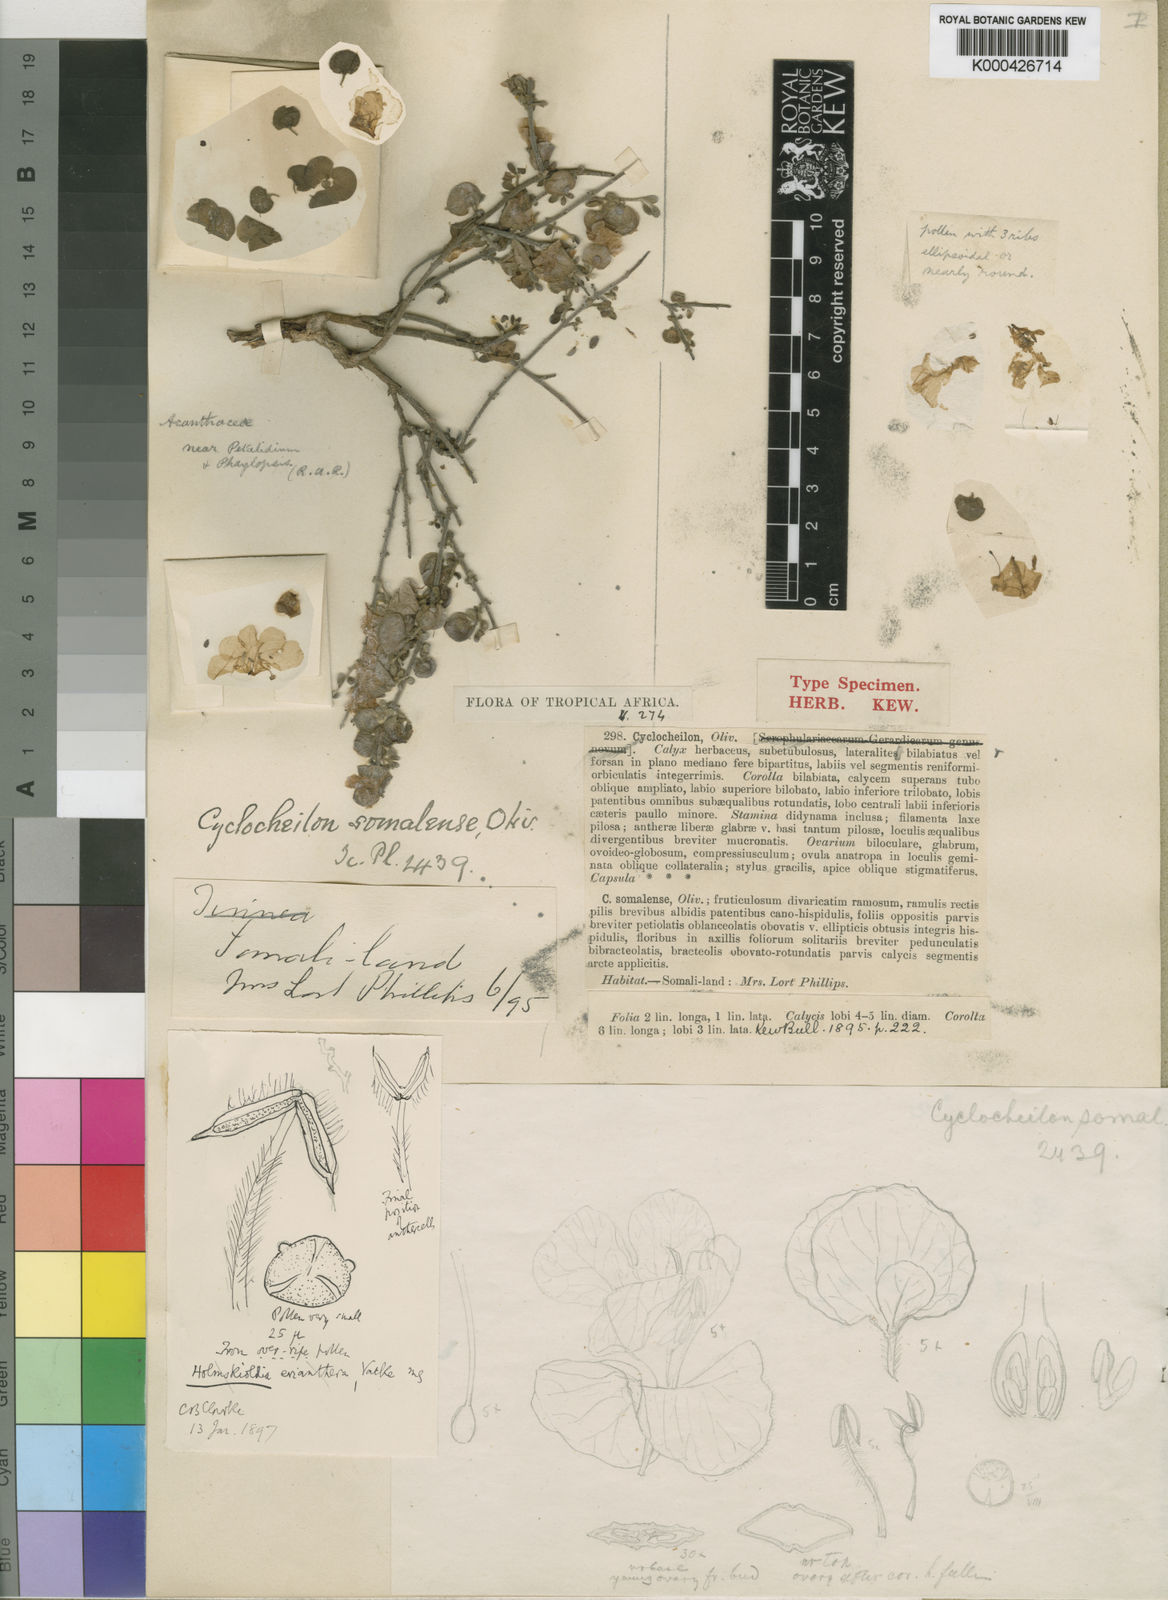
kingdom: Plantae
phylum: Tracheophyta
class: Magnoliopsida
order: Lamiales
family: Orobanchaceae
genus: Cyclocheilon
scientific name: Cyclocheilon somaliense
